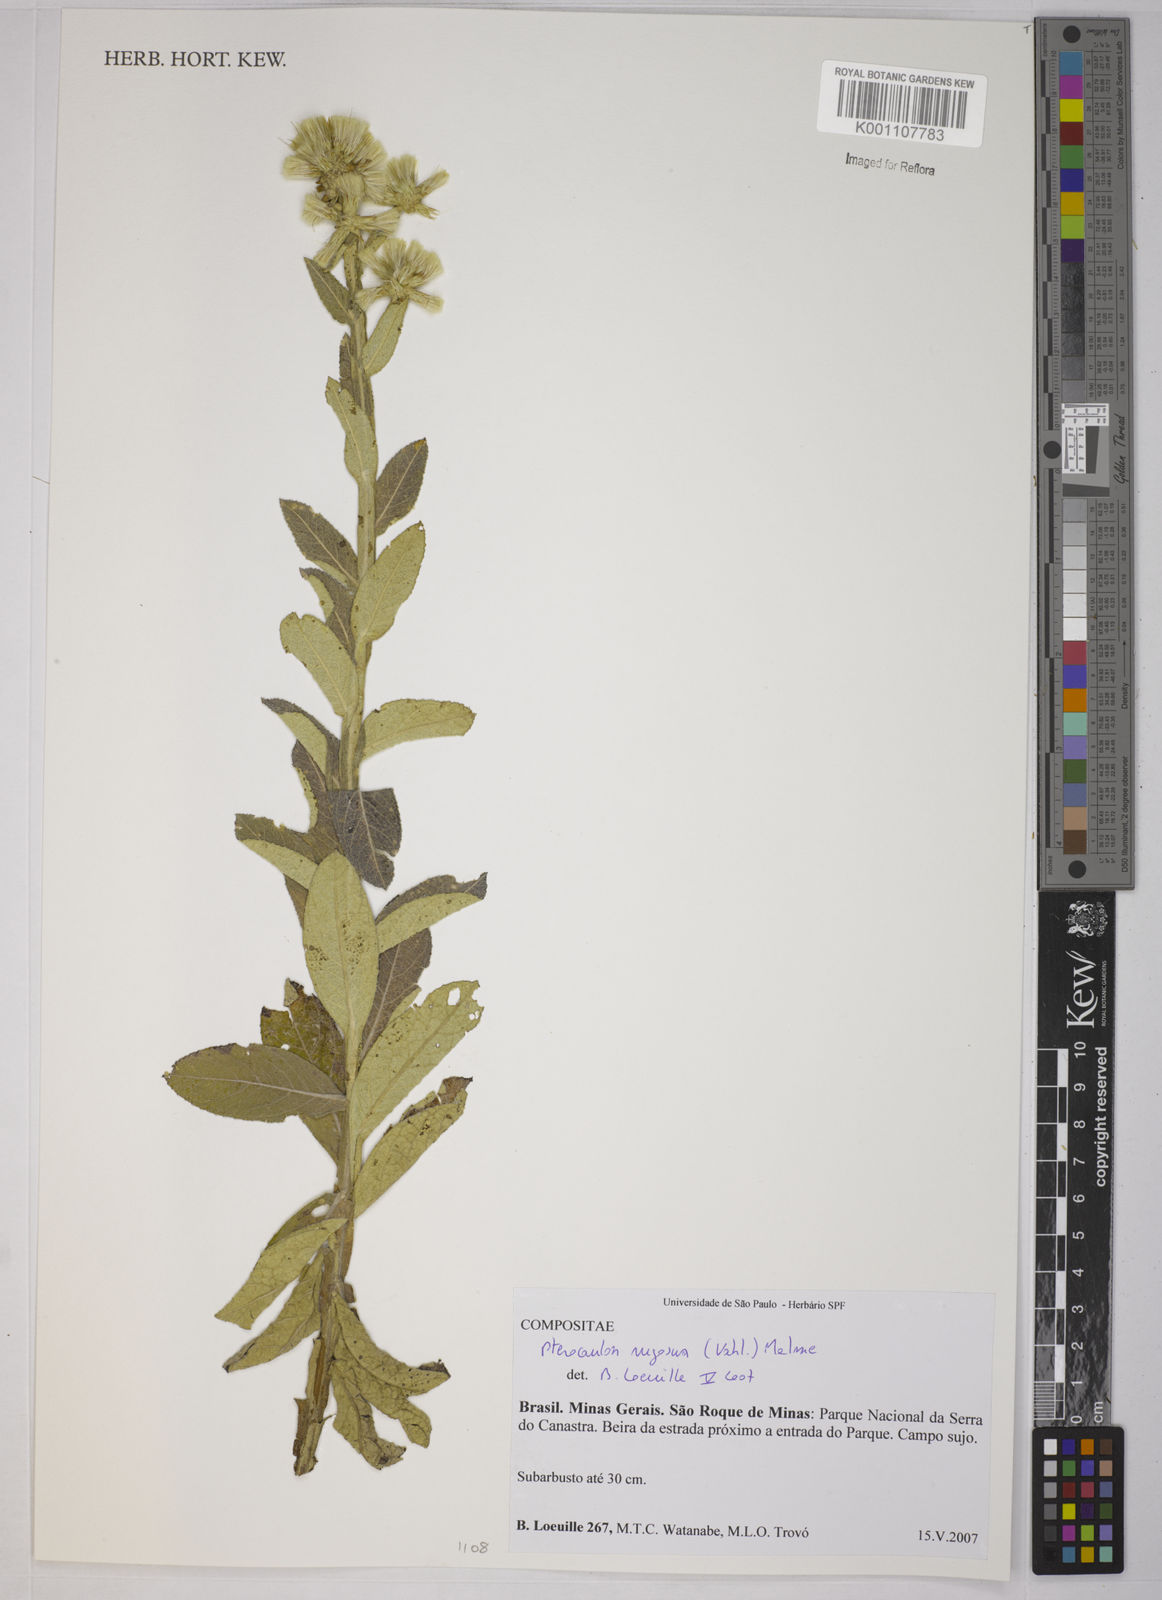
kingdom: Plantae
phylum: Tracheophyta
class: Magnoliopsida
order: Asterales
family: Asteraceae
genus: Pterocaulon
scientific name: Pterocaulon angustifolium
